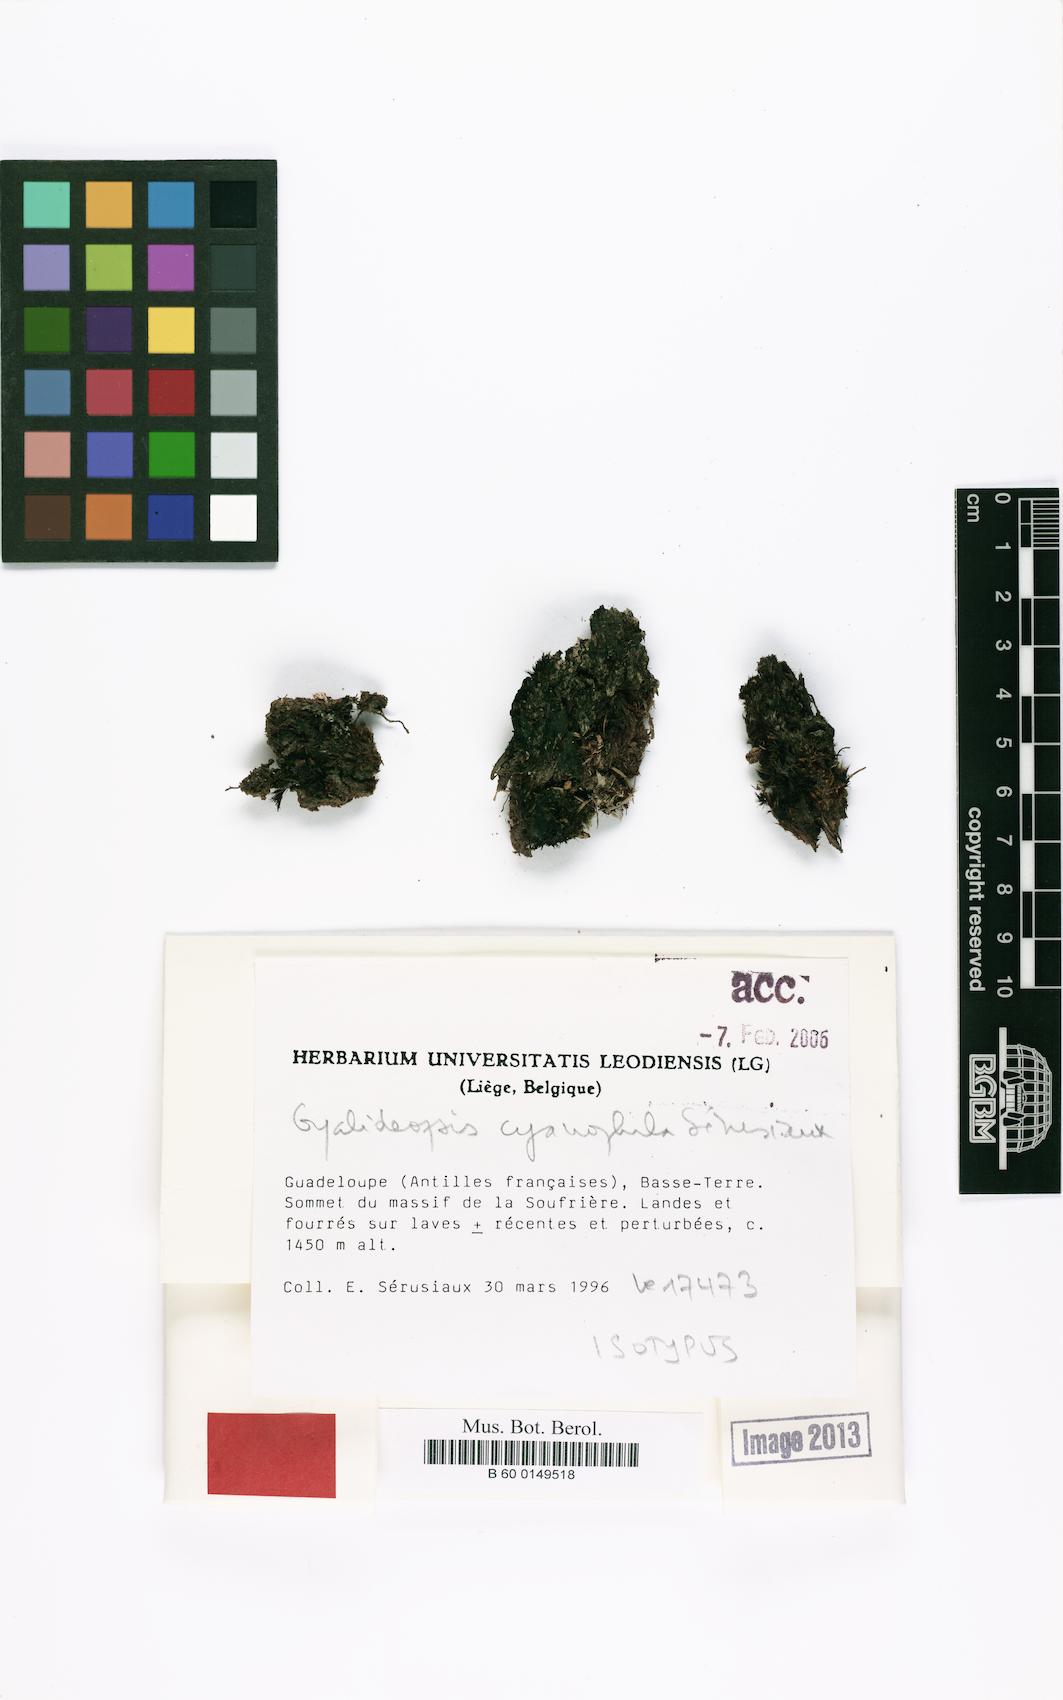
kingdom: Fungi
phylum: Ascomycota
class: Lecanoromycetes
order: Ostropales
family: Gomphillaceae
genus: Gyalideopsis
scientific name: Gyalideopsis cyanophila
